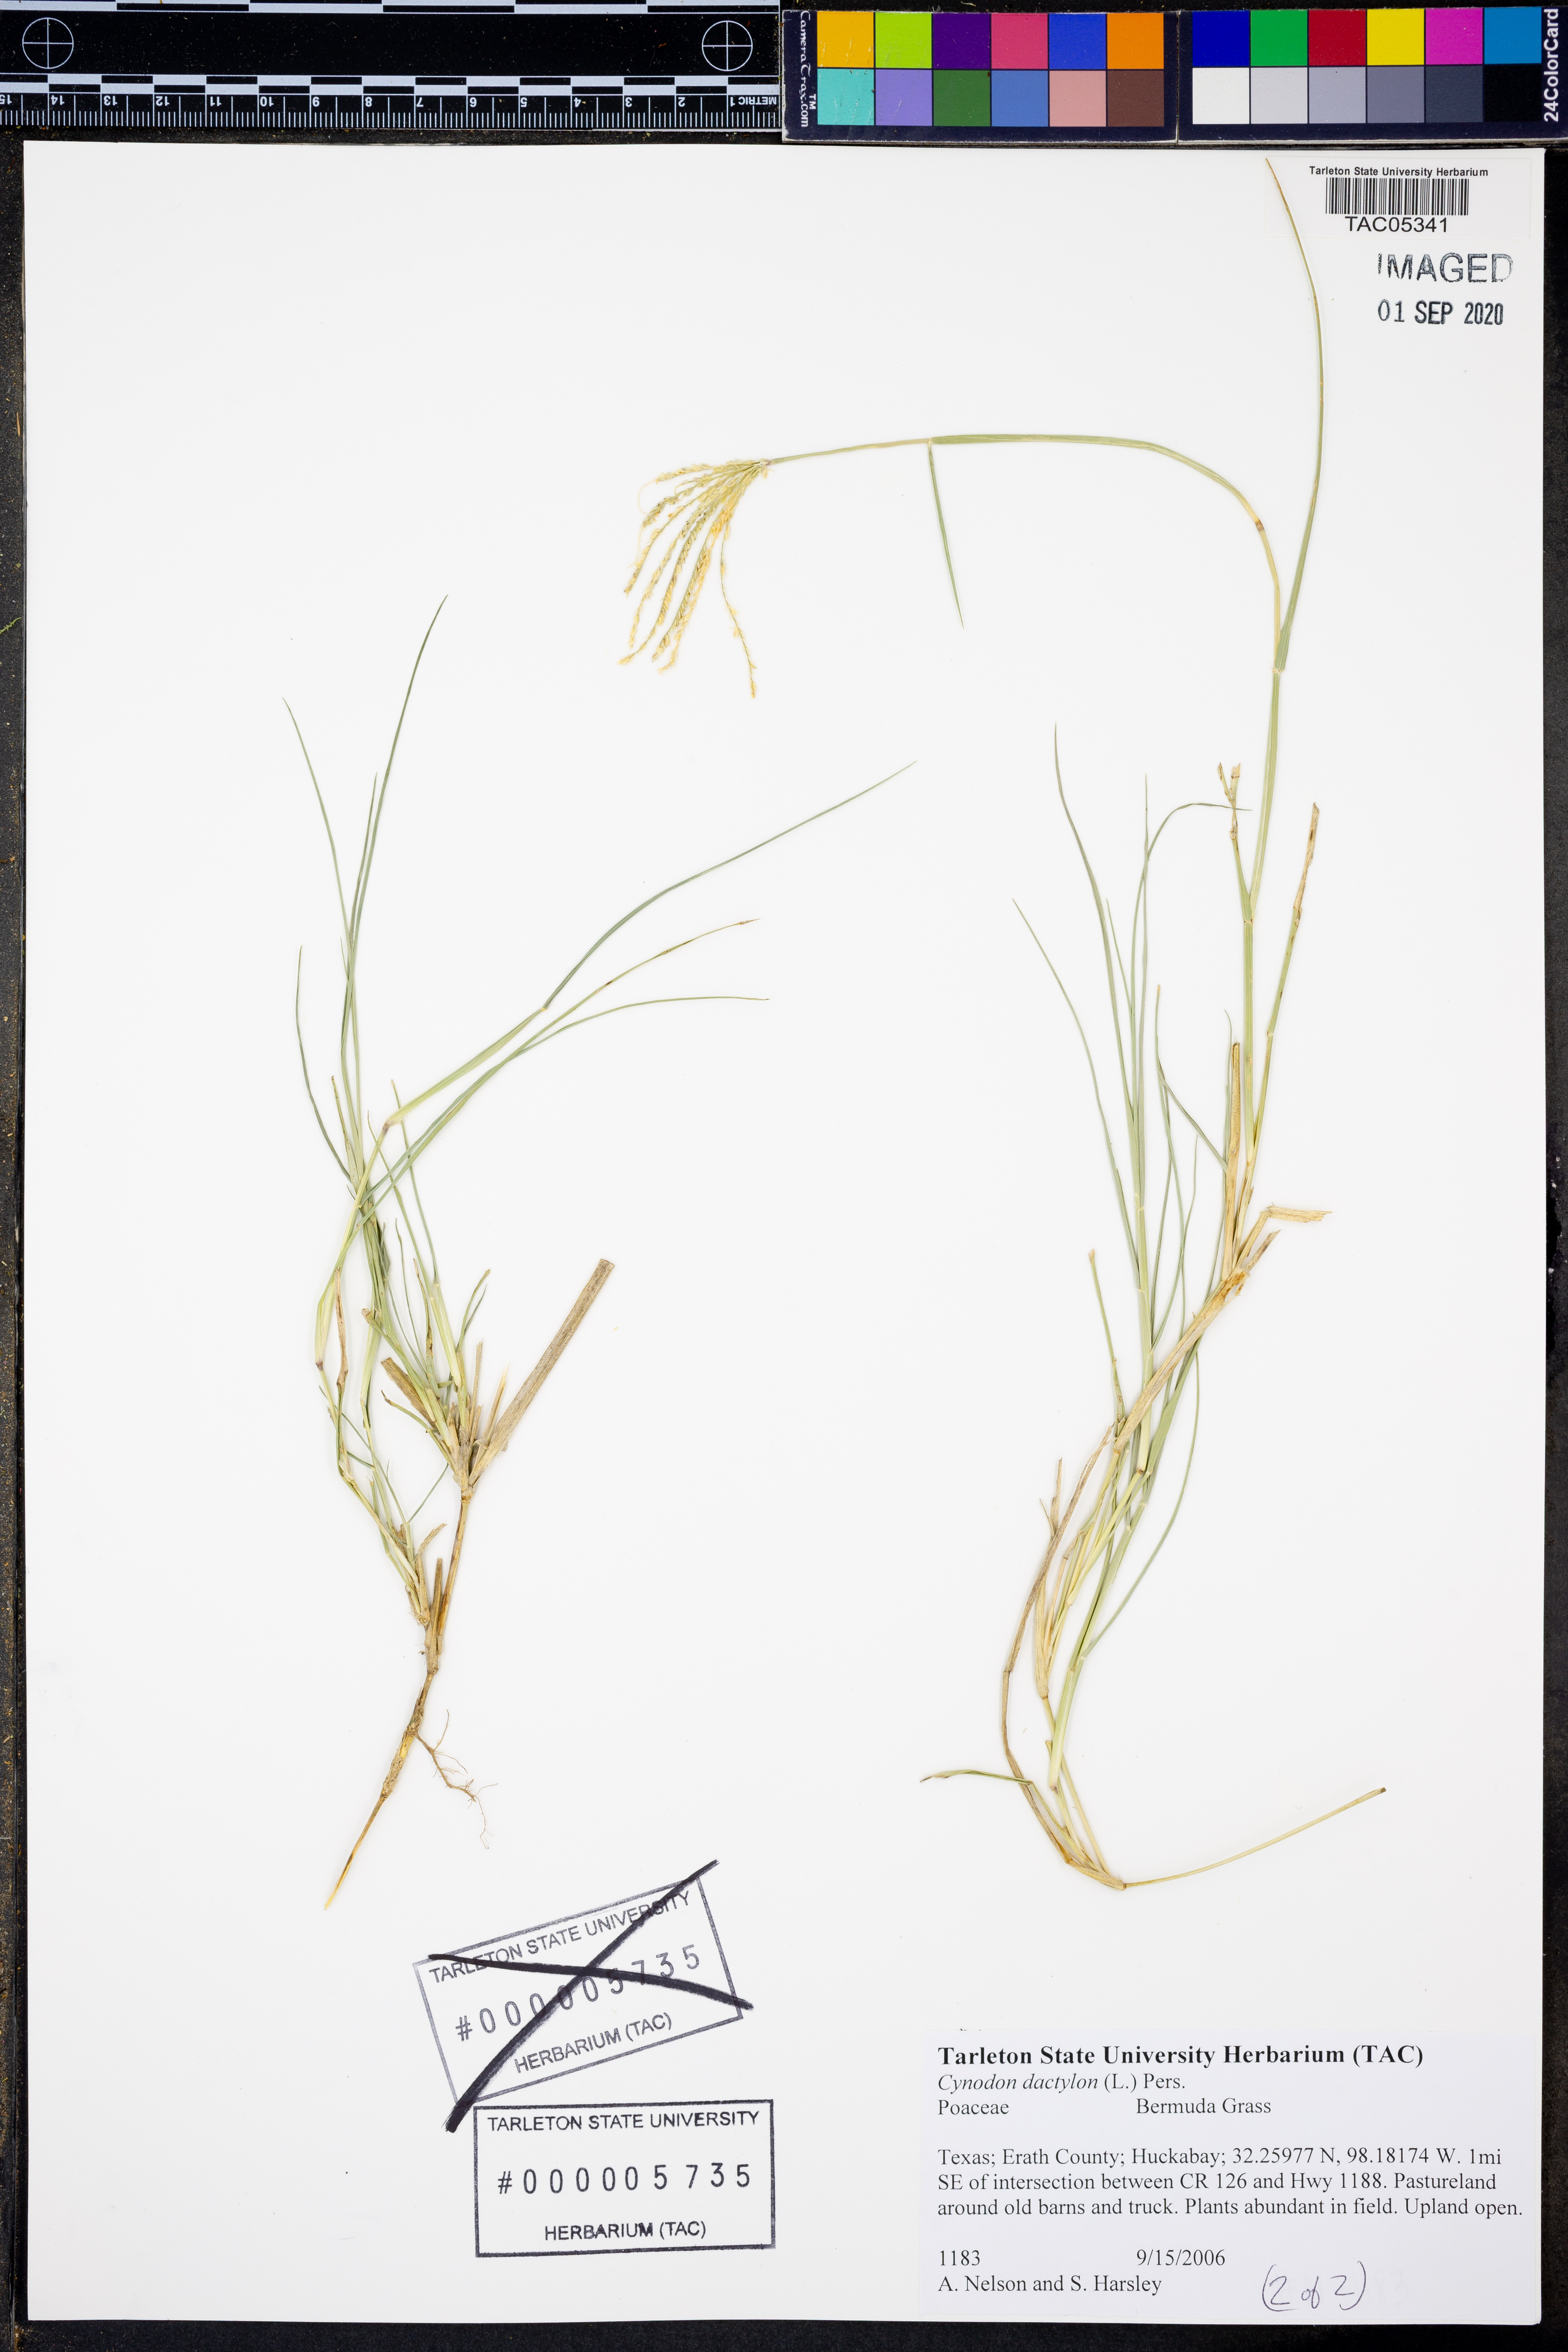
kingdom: Plantae
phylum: Tracheophyta
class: Liliopsida
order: Poales
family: Poaceae
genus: Cynodon
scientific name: Cynodon dactylon
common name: Bermuda grass
